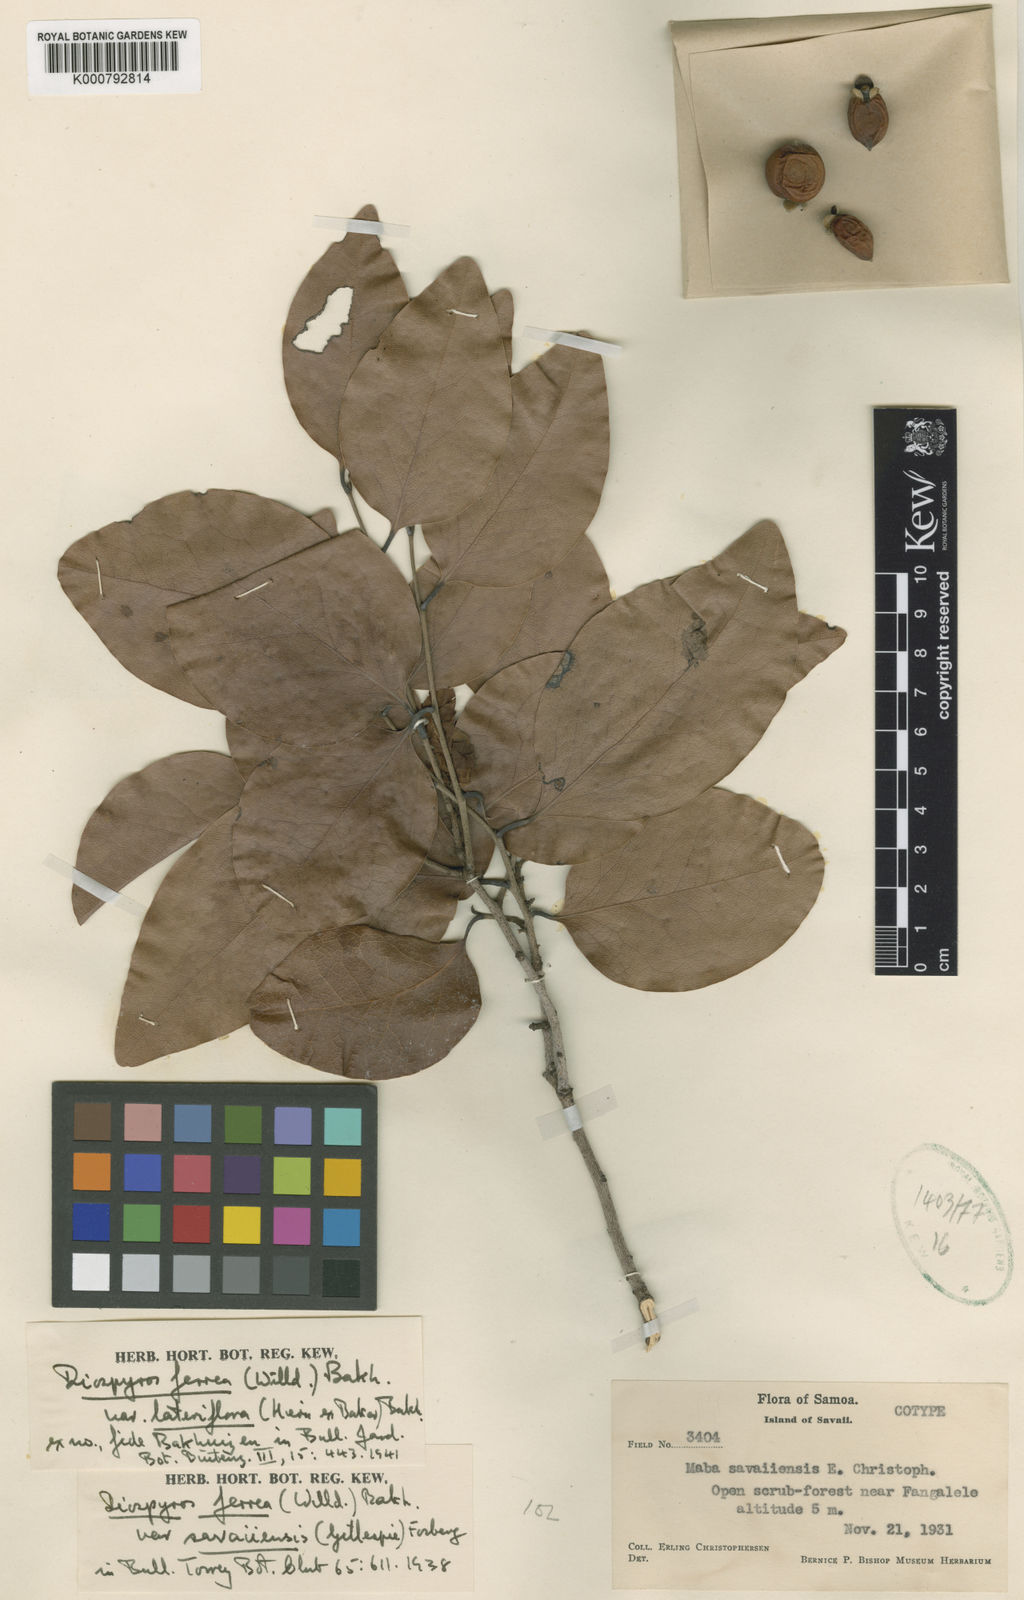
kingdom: Plantae
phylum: Tracheophyta
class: Magnoliopsida
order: Ericales
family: Ebenaceae
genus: Diospyros
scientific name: Diospyros foliosa
